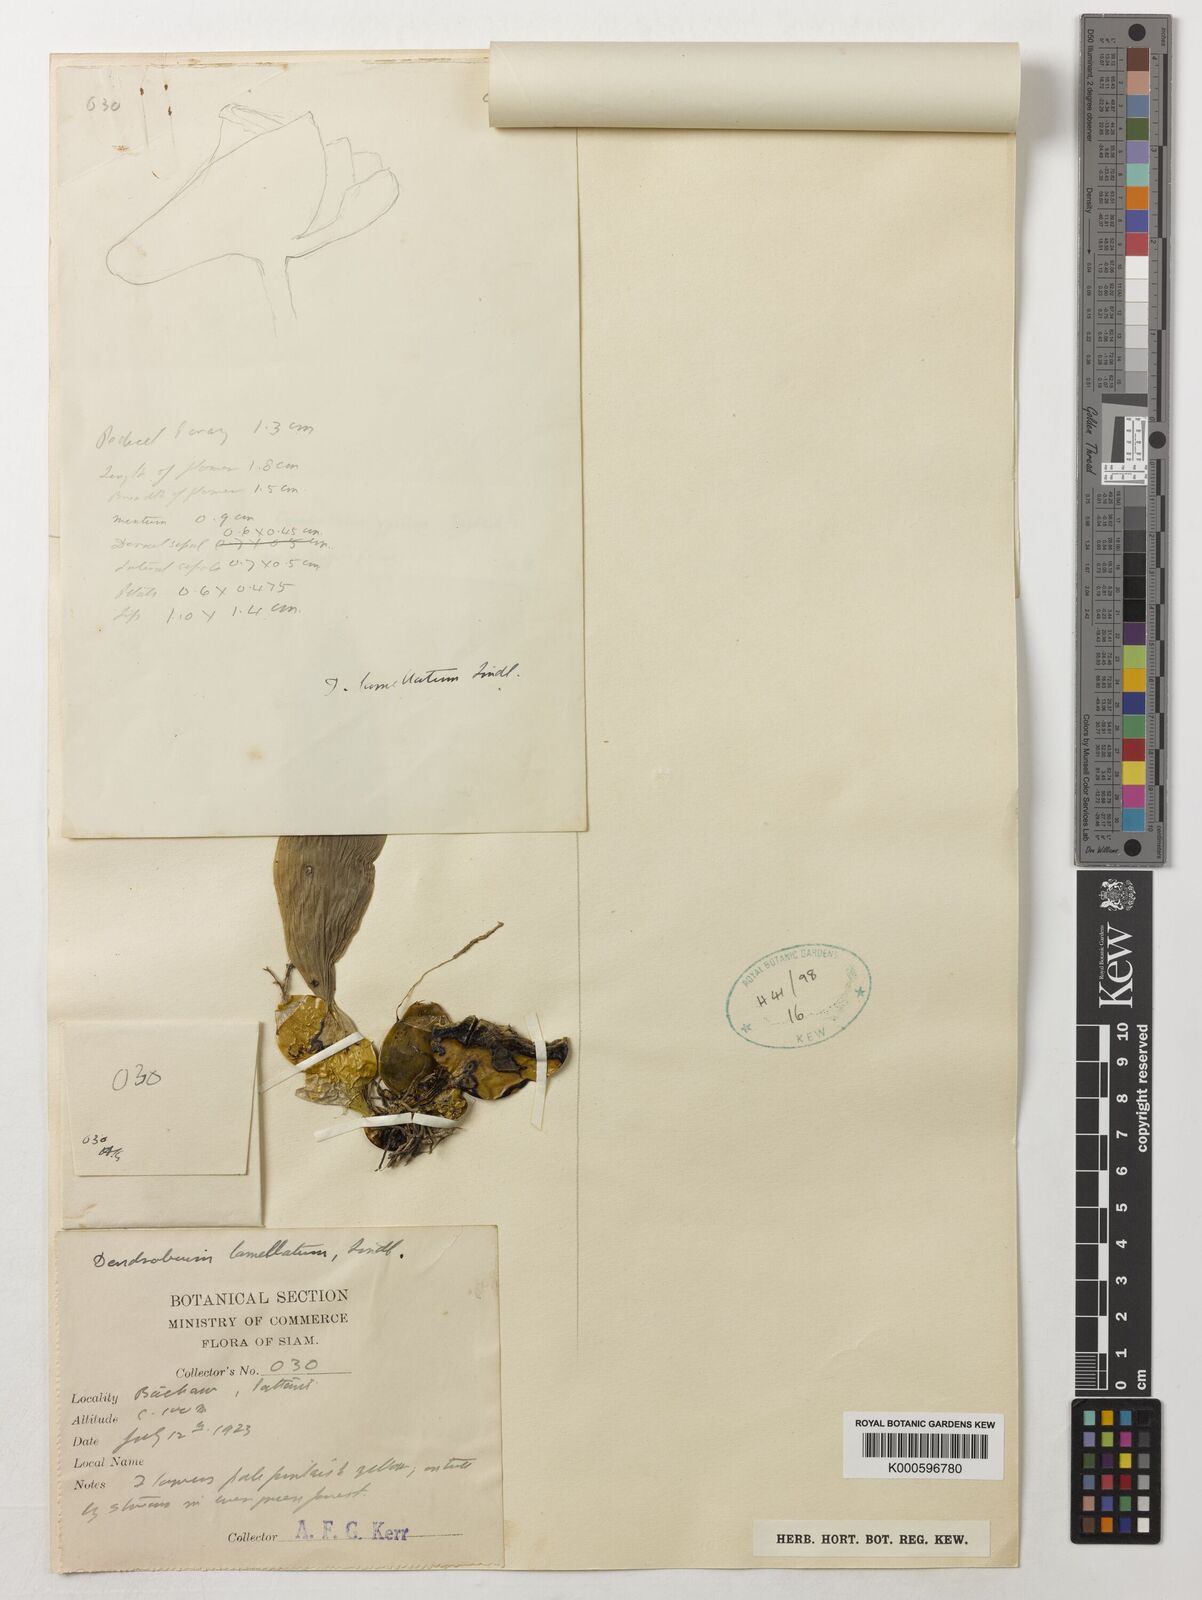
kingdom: Plantae
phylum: Tracheophyta
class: Liliopsida
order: Asparagales
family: Orchidaceae
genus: Dendrobium
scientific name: Dendrobium lamellatum
